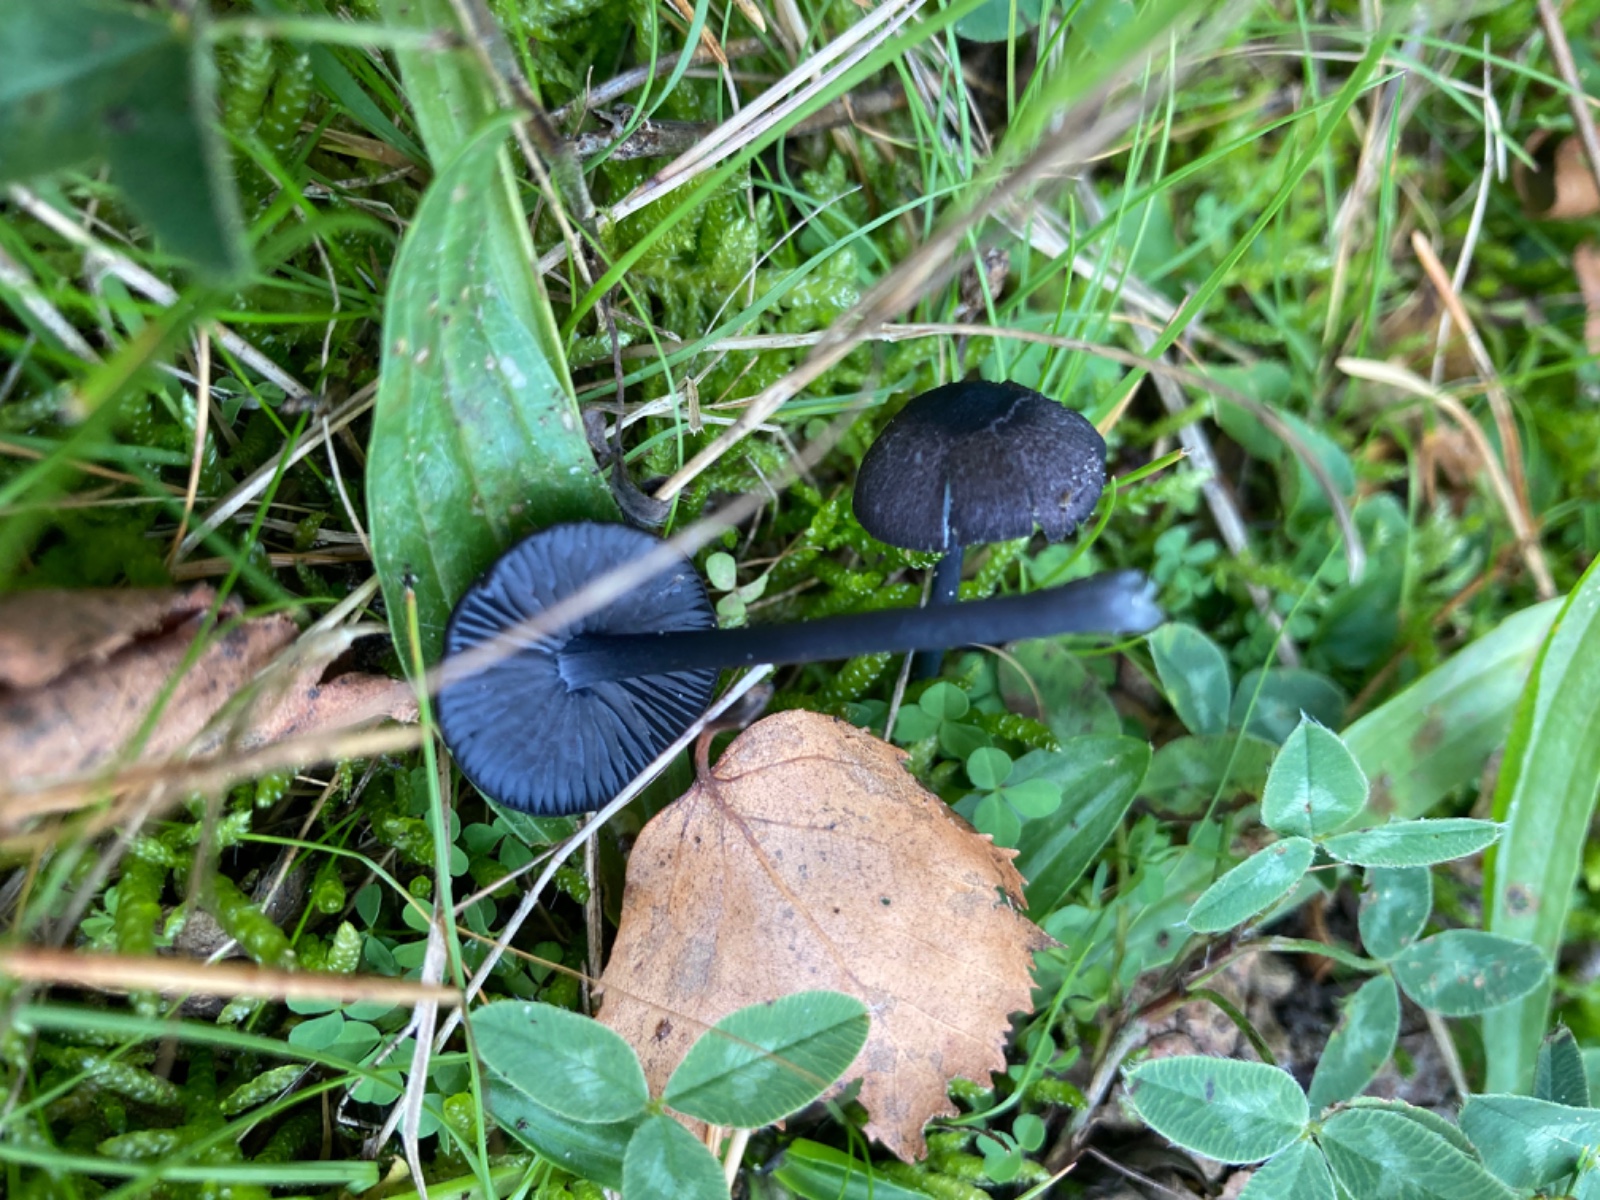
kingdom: Fungi
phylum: Basidiomycota
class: Agaricomycetes
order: Agaricales
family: Entolomataceae
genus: Entoloma
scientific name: Entoloma chalybeum
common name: blåbladet rødblad
